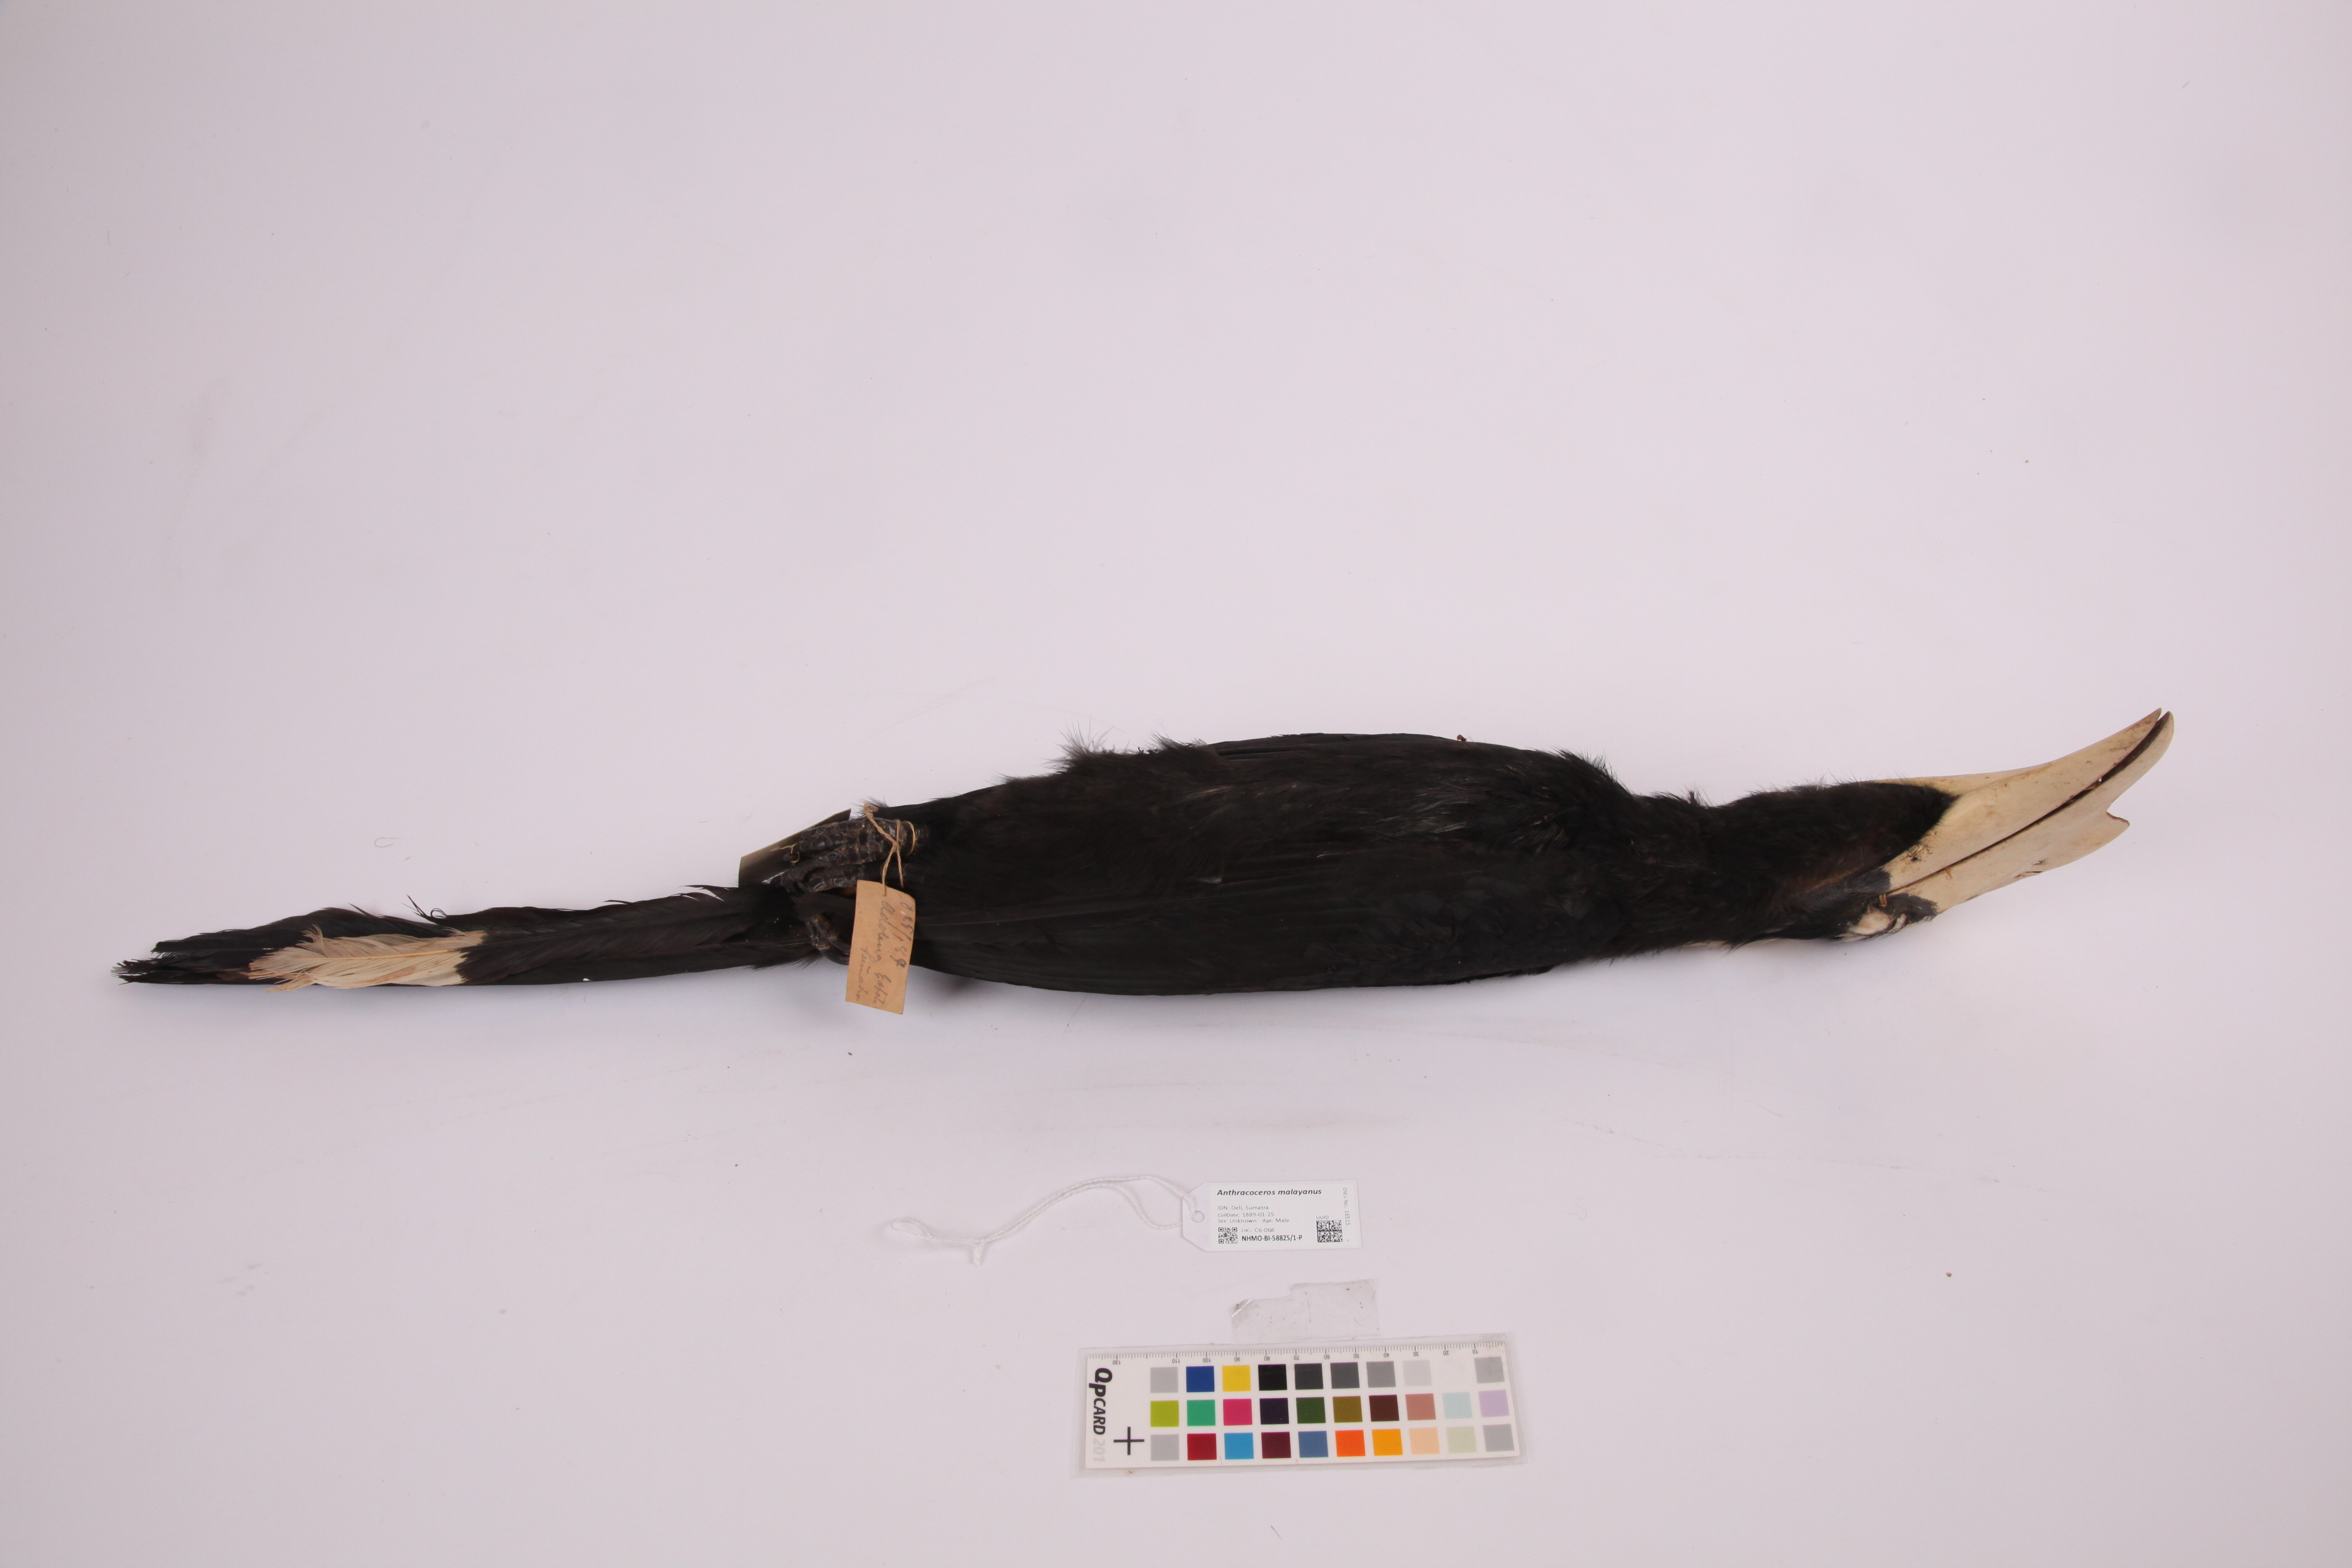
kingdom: Animalia
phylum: Chordata
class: Aves
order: Bucerotiformes
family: Bucerotidae
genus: Anthracoceros
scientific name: Anthracoceros malayanus
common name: Black hornbill
